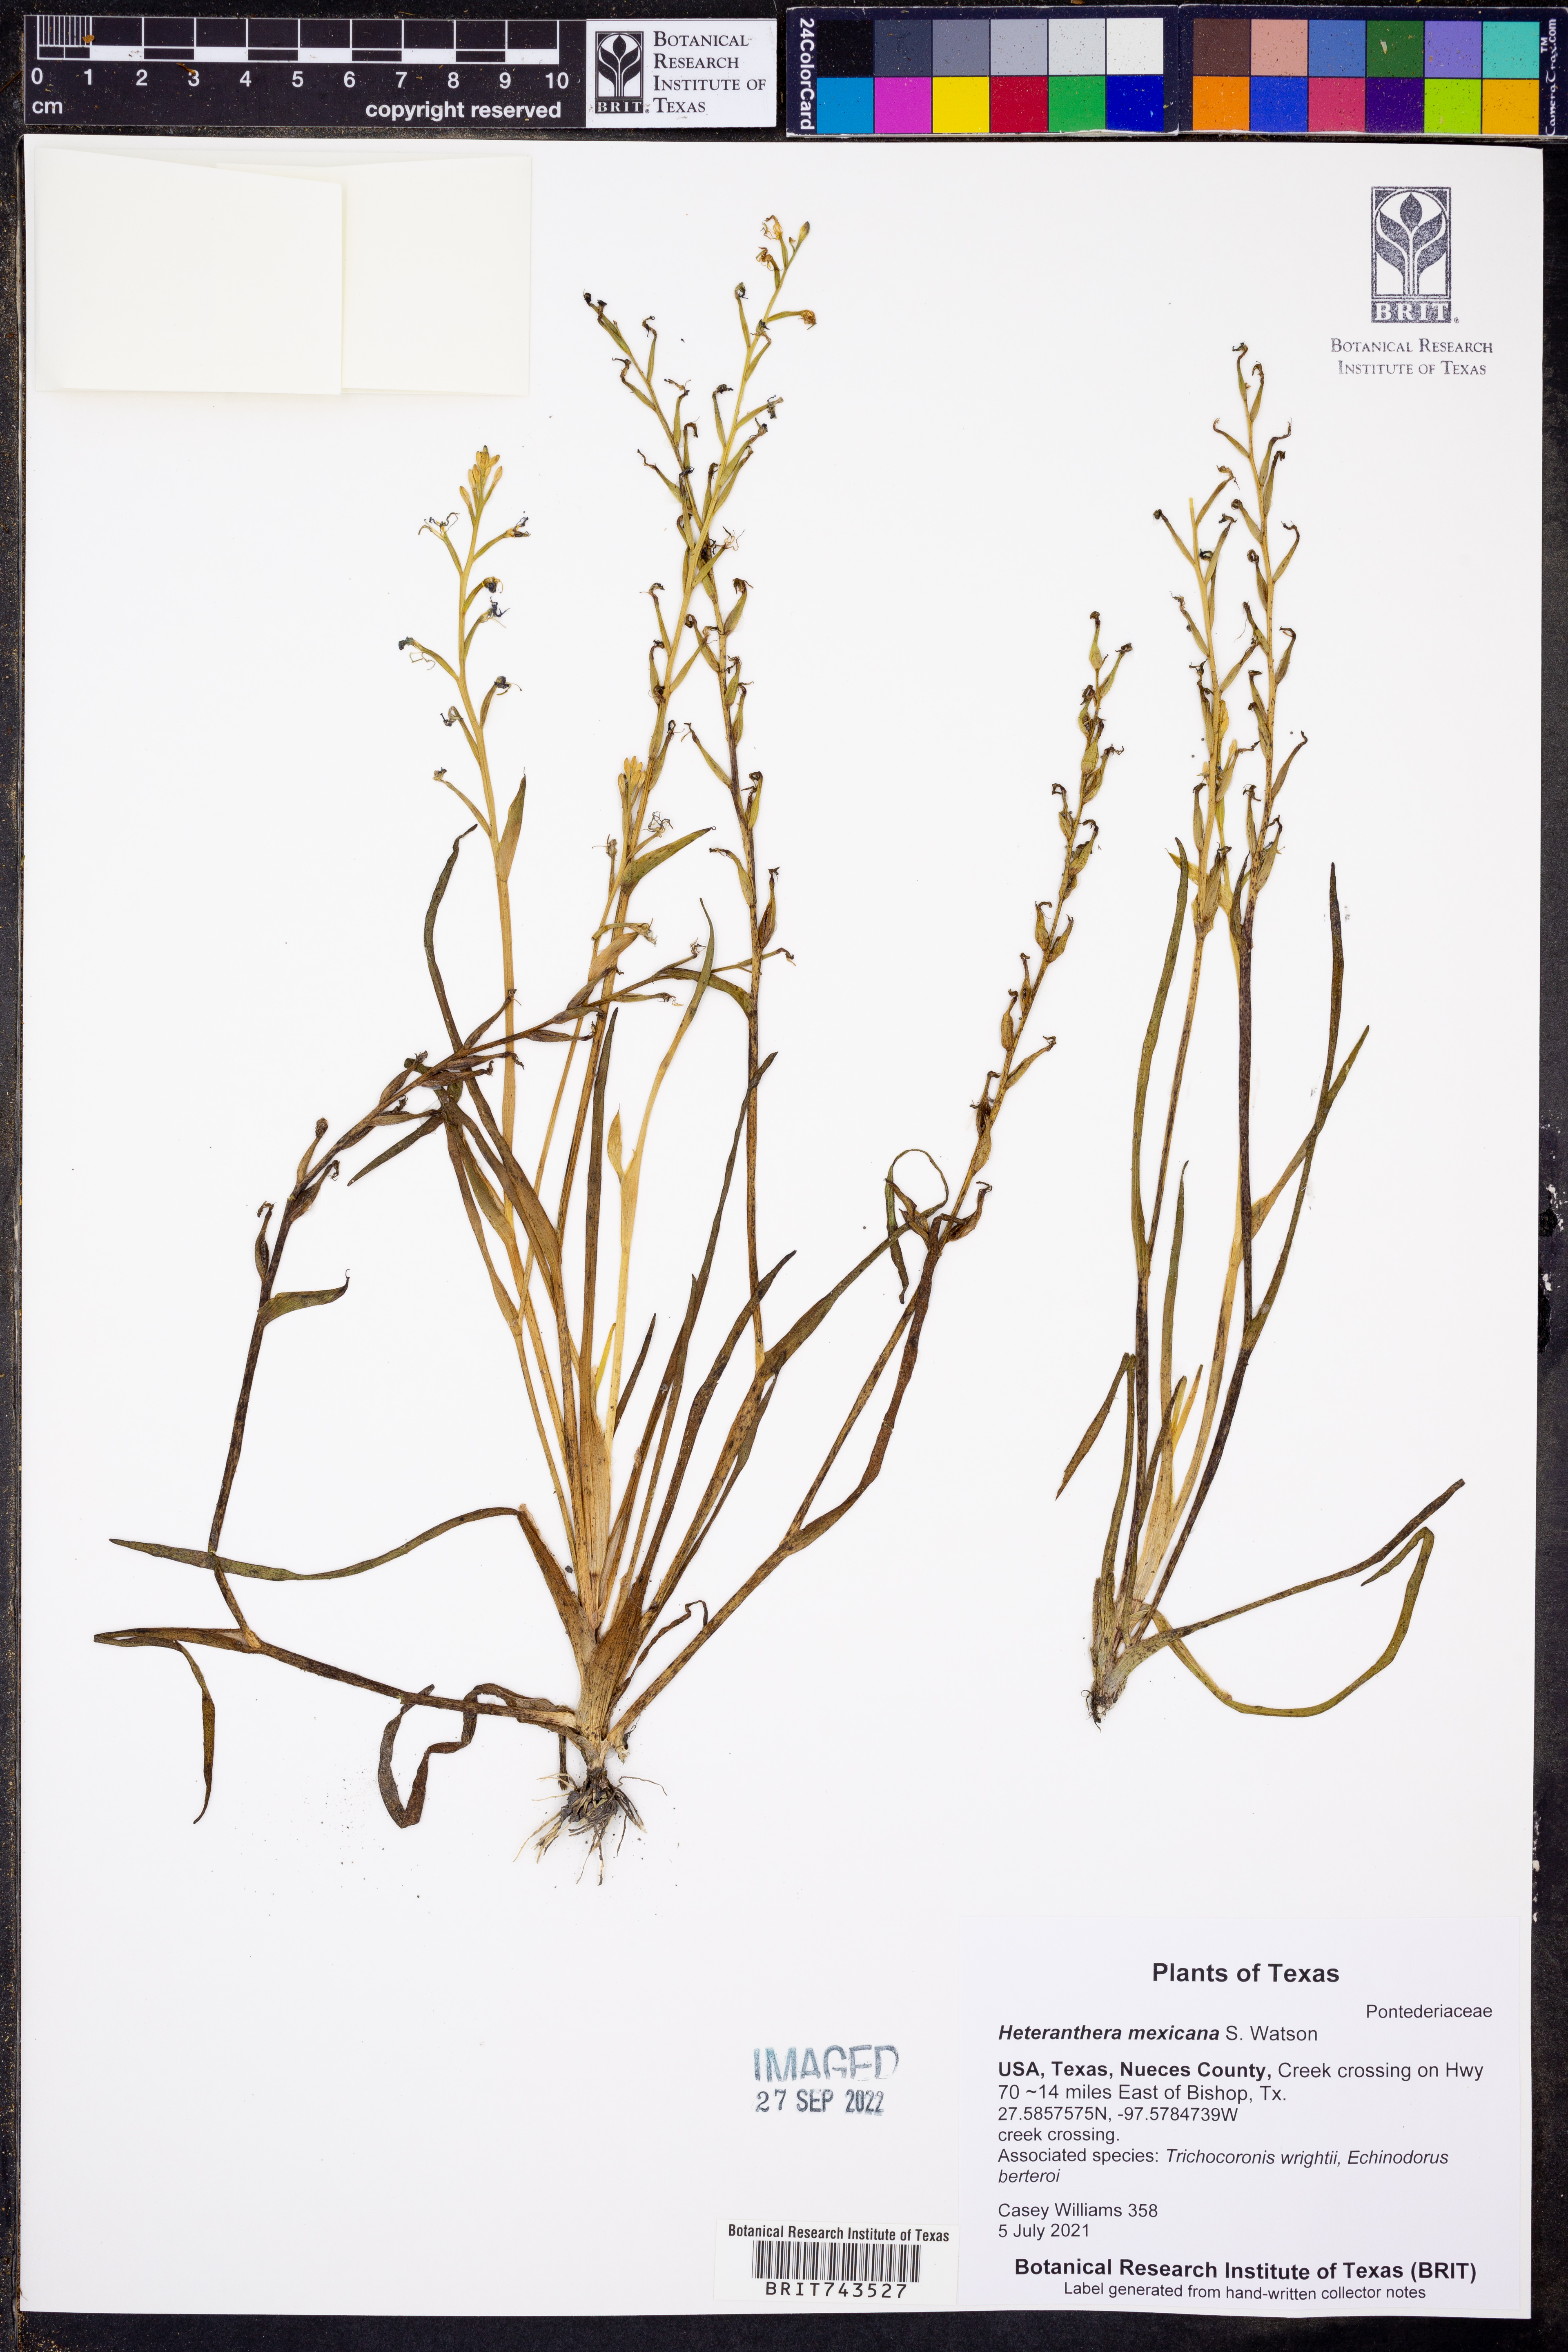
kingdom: Plantae
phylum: Tracheophyta
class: Liliopsida
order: Commelinales
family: Pontederiaceae
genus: Heteranthera
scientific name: Heteranthera mexicana
